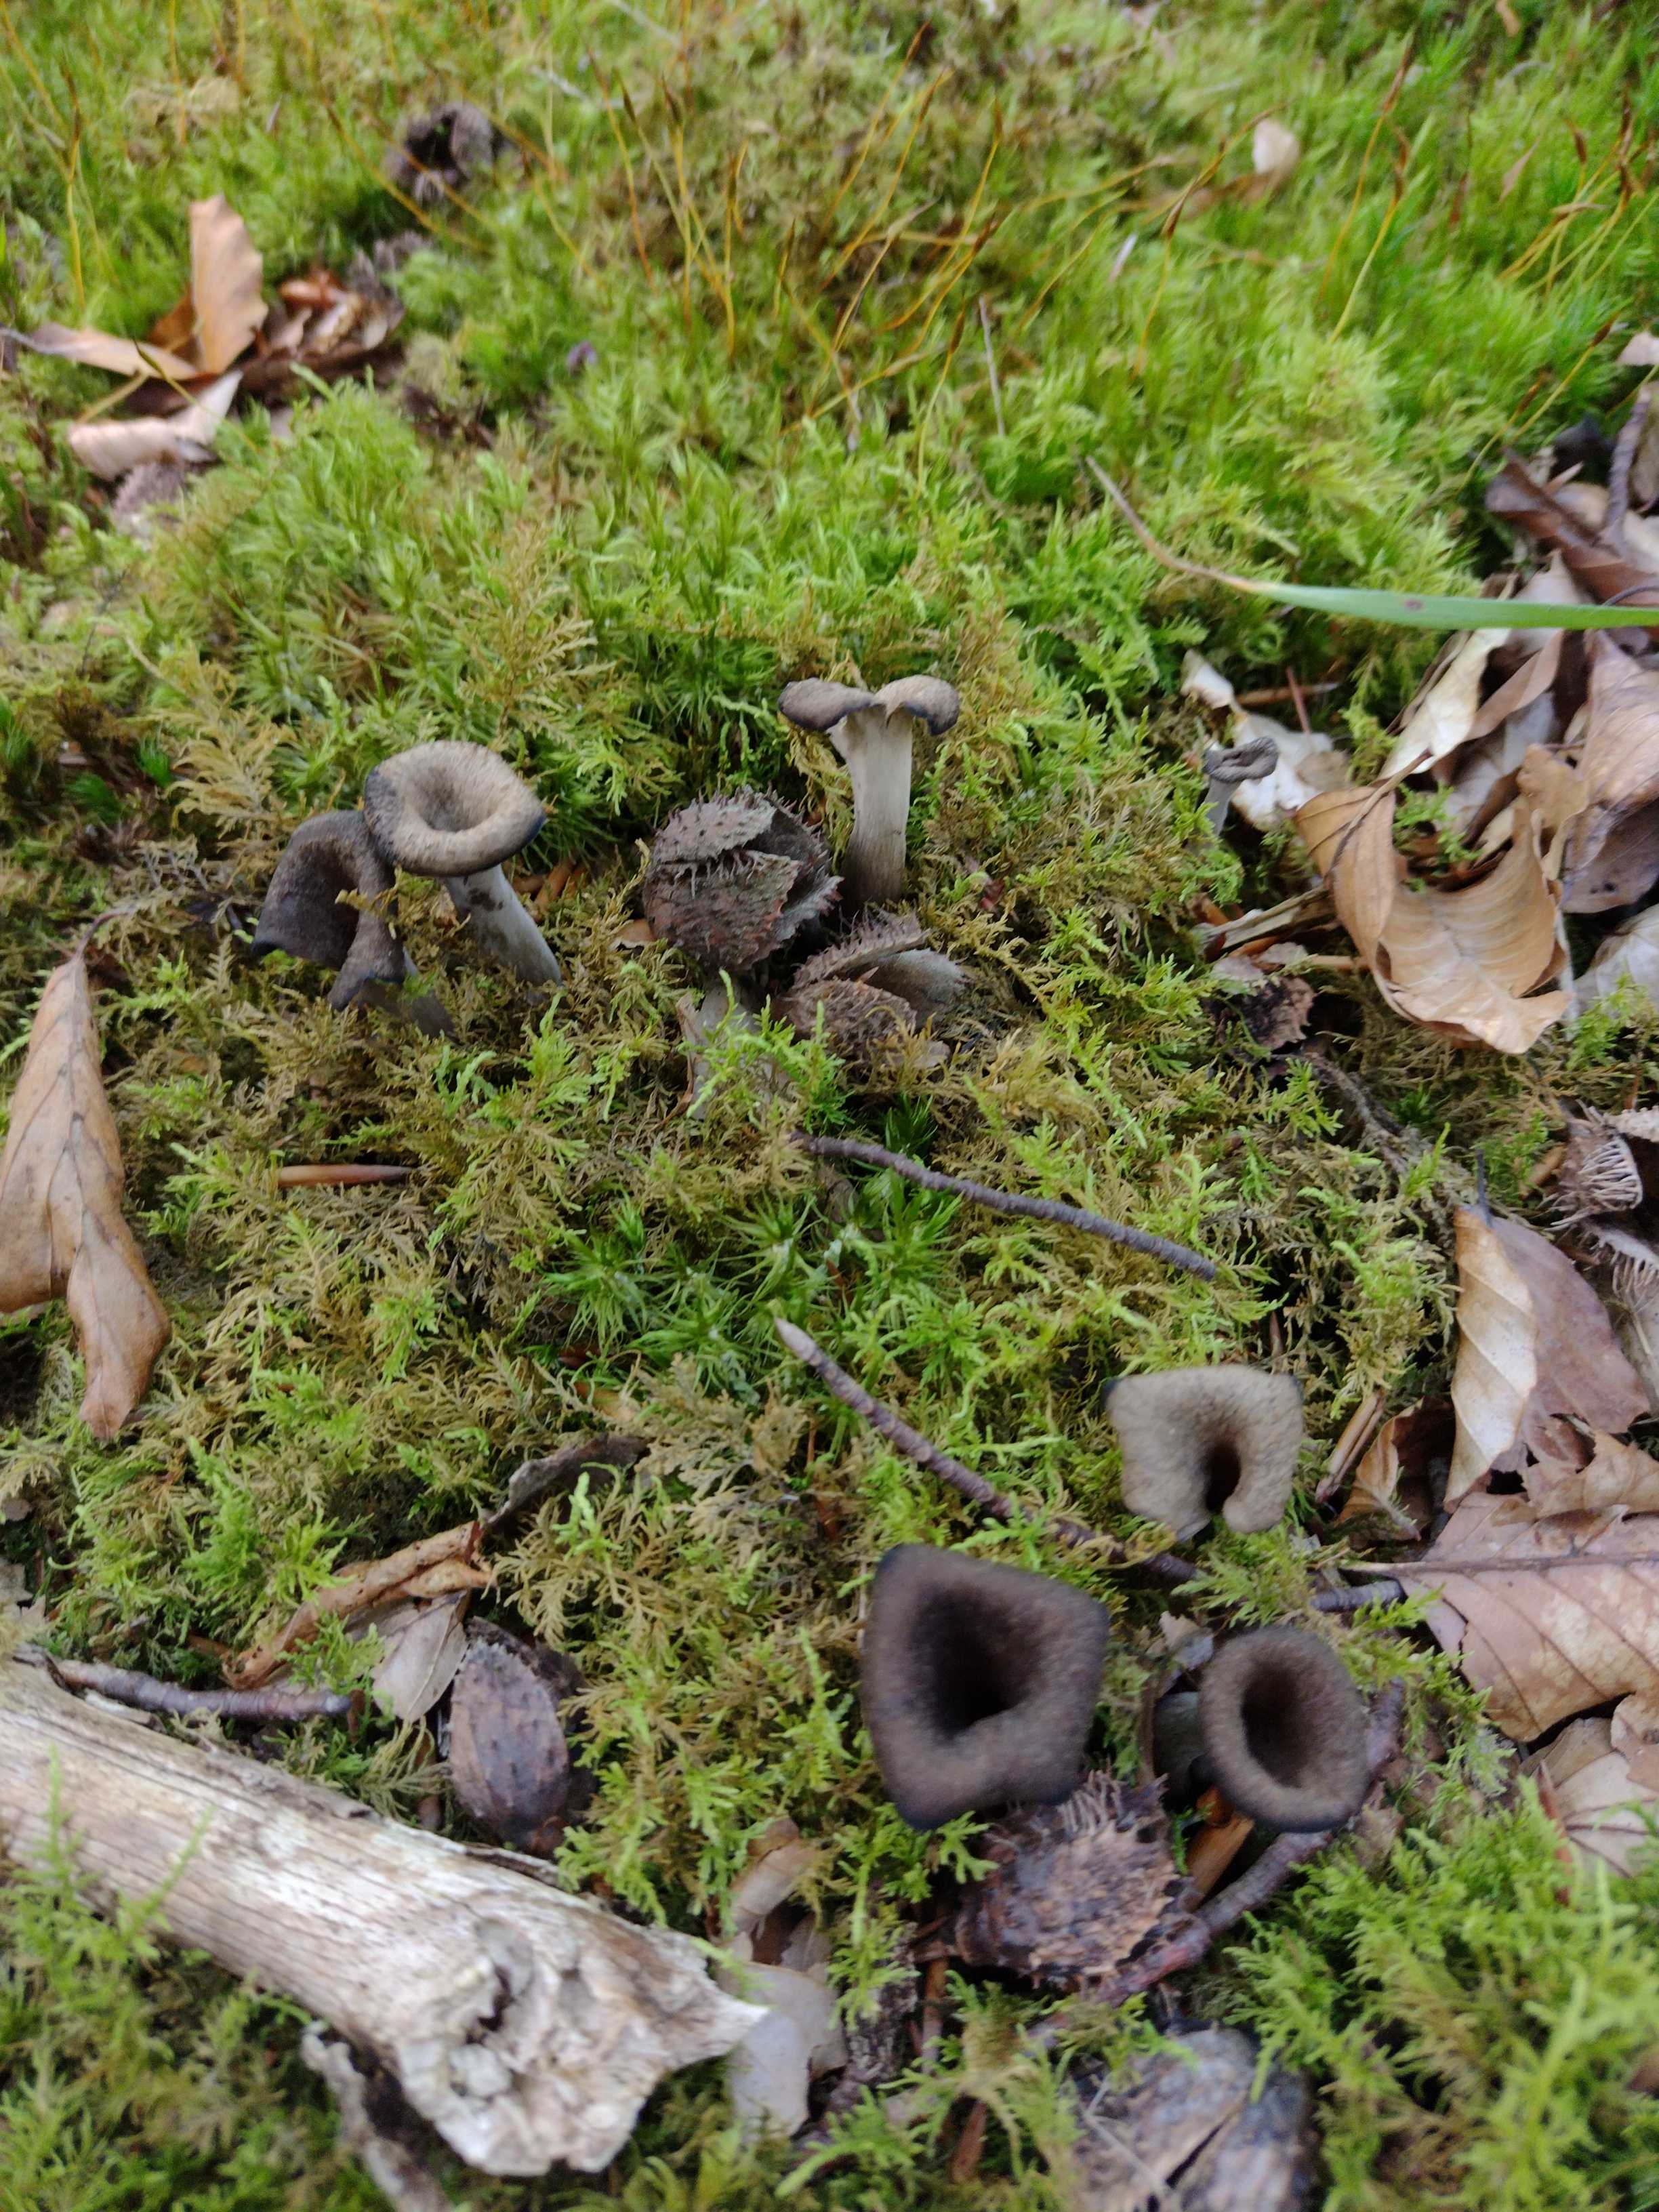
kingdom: Fungi
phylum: Basidiomycota
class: Agaricomycetes
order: Cantharellales
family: Hydnaceae
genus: Craterellus
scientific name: Craterellus cornucopioides
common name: trompetsvamp
